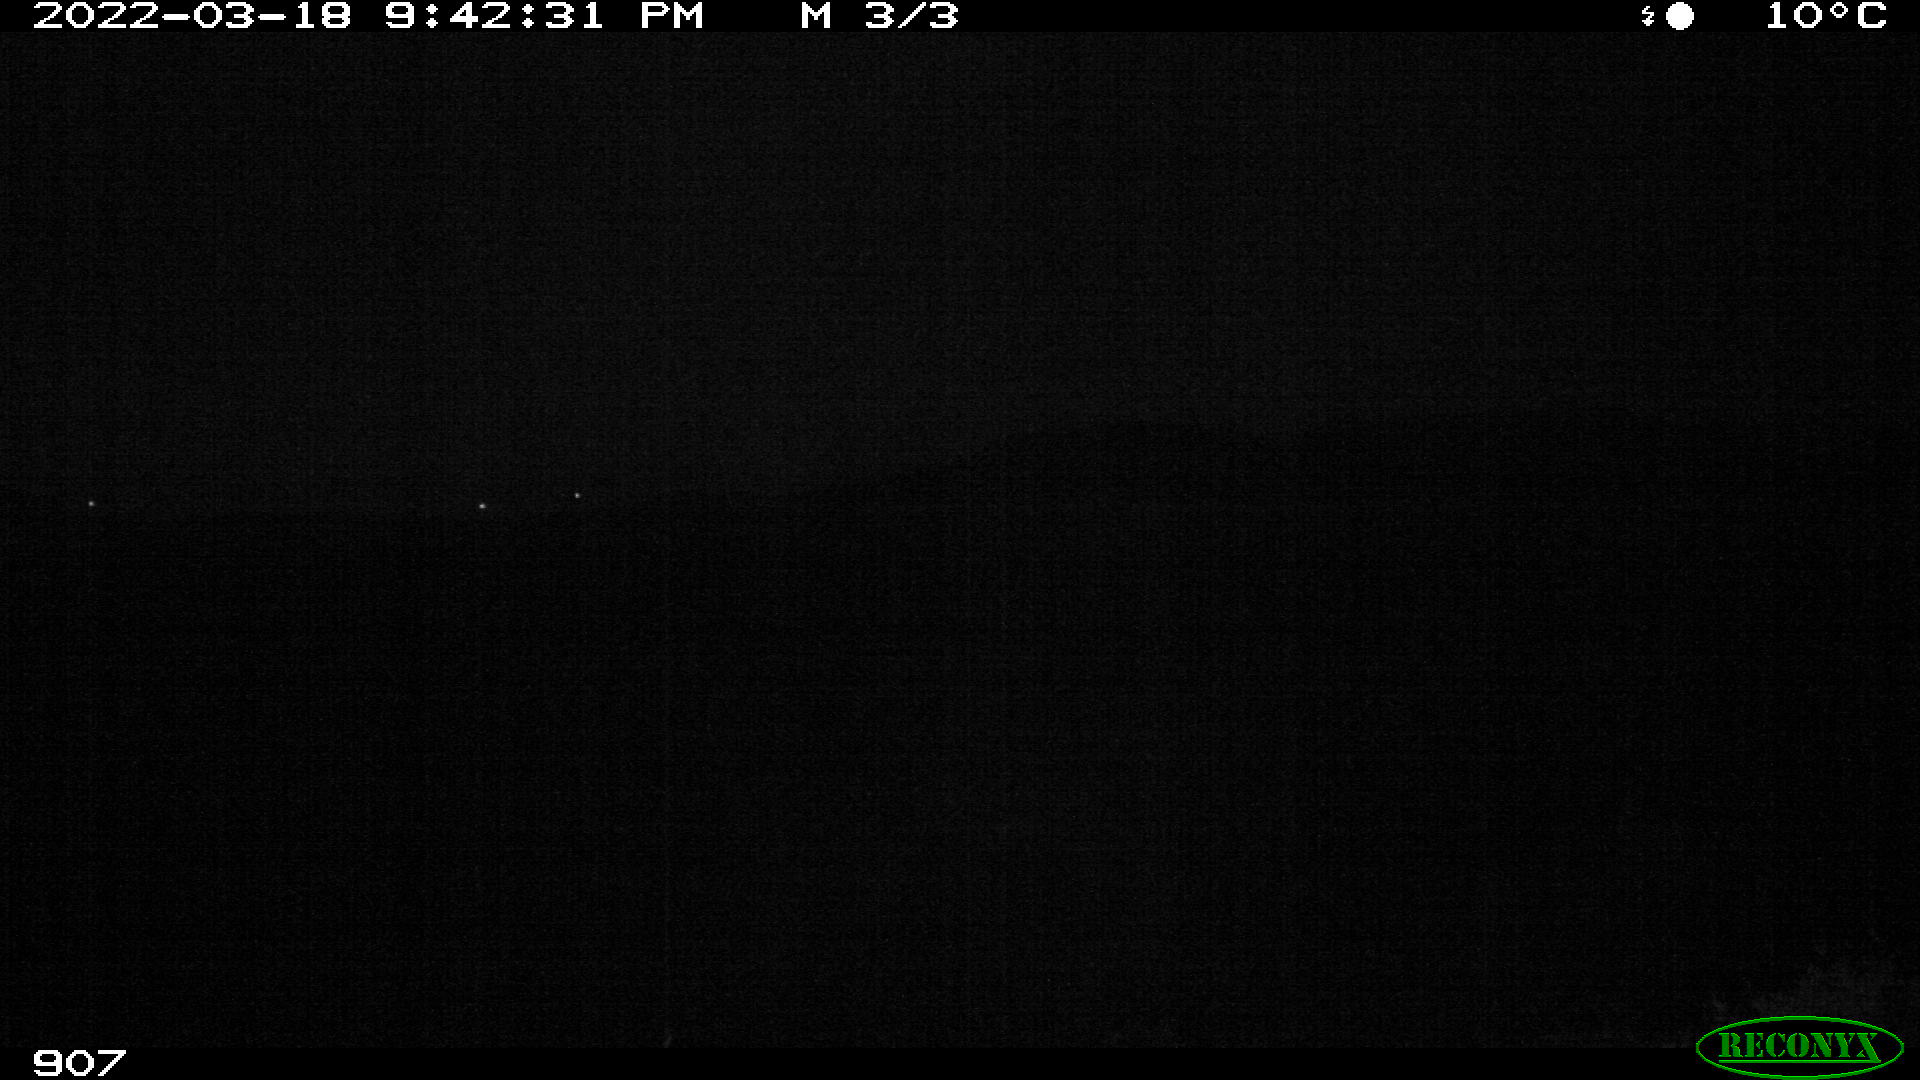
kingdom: Animalia
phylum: Chordata
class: Mammalia
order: Artiodactyla
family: Bovidae
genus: Bos
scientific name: Bos taurus
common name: Domesticated cattle
